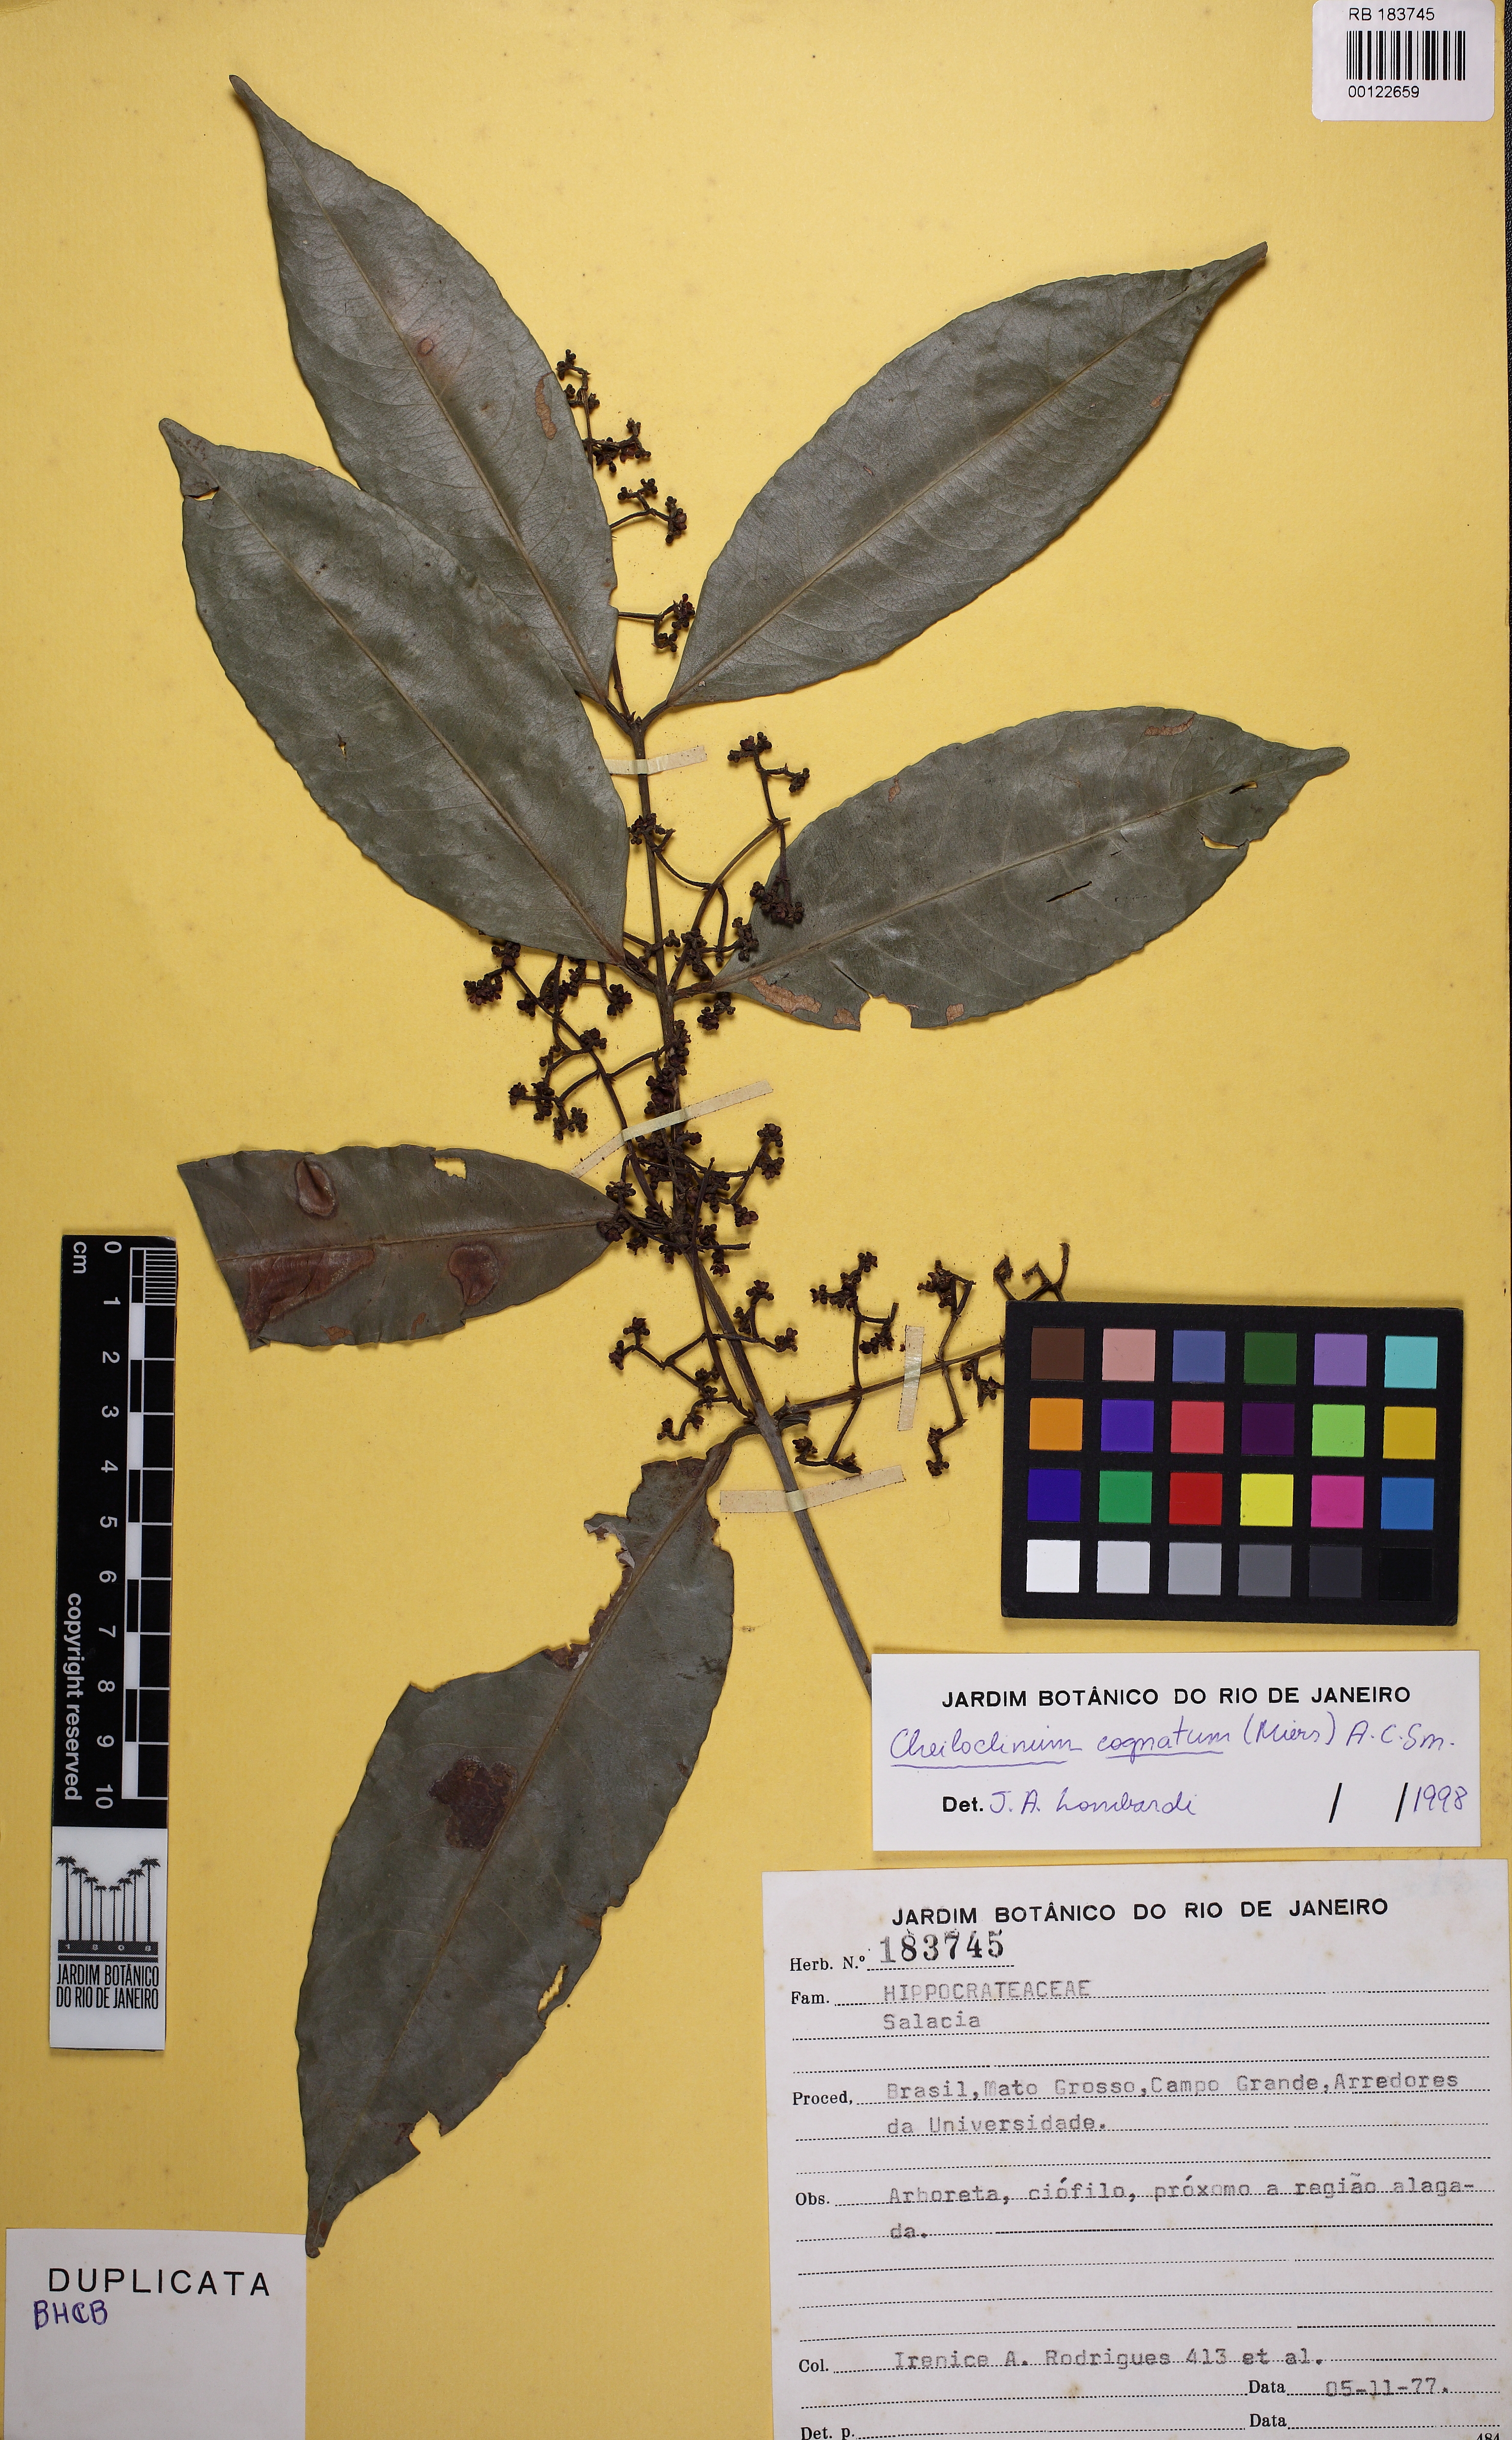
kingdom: Plantae
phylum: Tracheophyta
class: Magnoliopsida
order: Celastrales
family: Celastraceae
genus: Cheiloclinium
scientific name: Cheiloclinium cognatum
